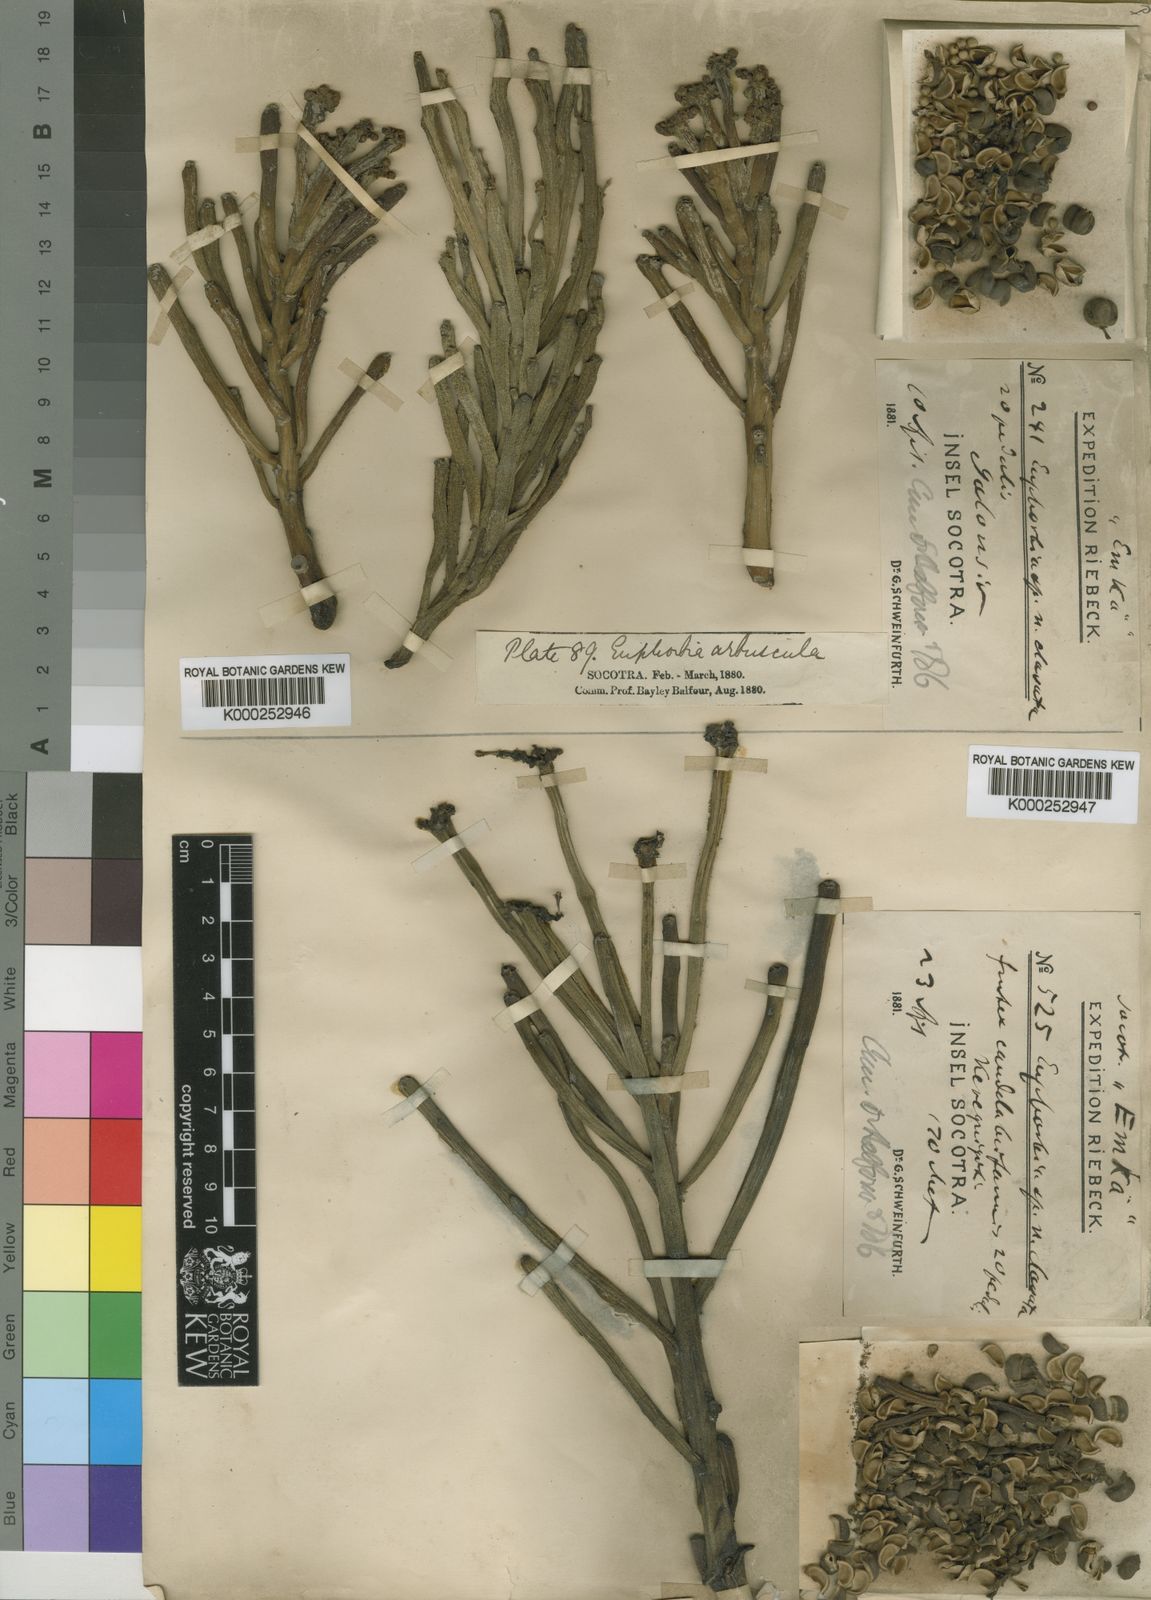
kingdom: Plantae
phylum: Tracheophyta
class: Magnoliopsida
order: Malpighiales
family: Euphorbiaceae
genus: Euphorbia
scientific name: Euphorbia arbuscula
